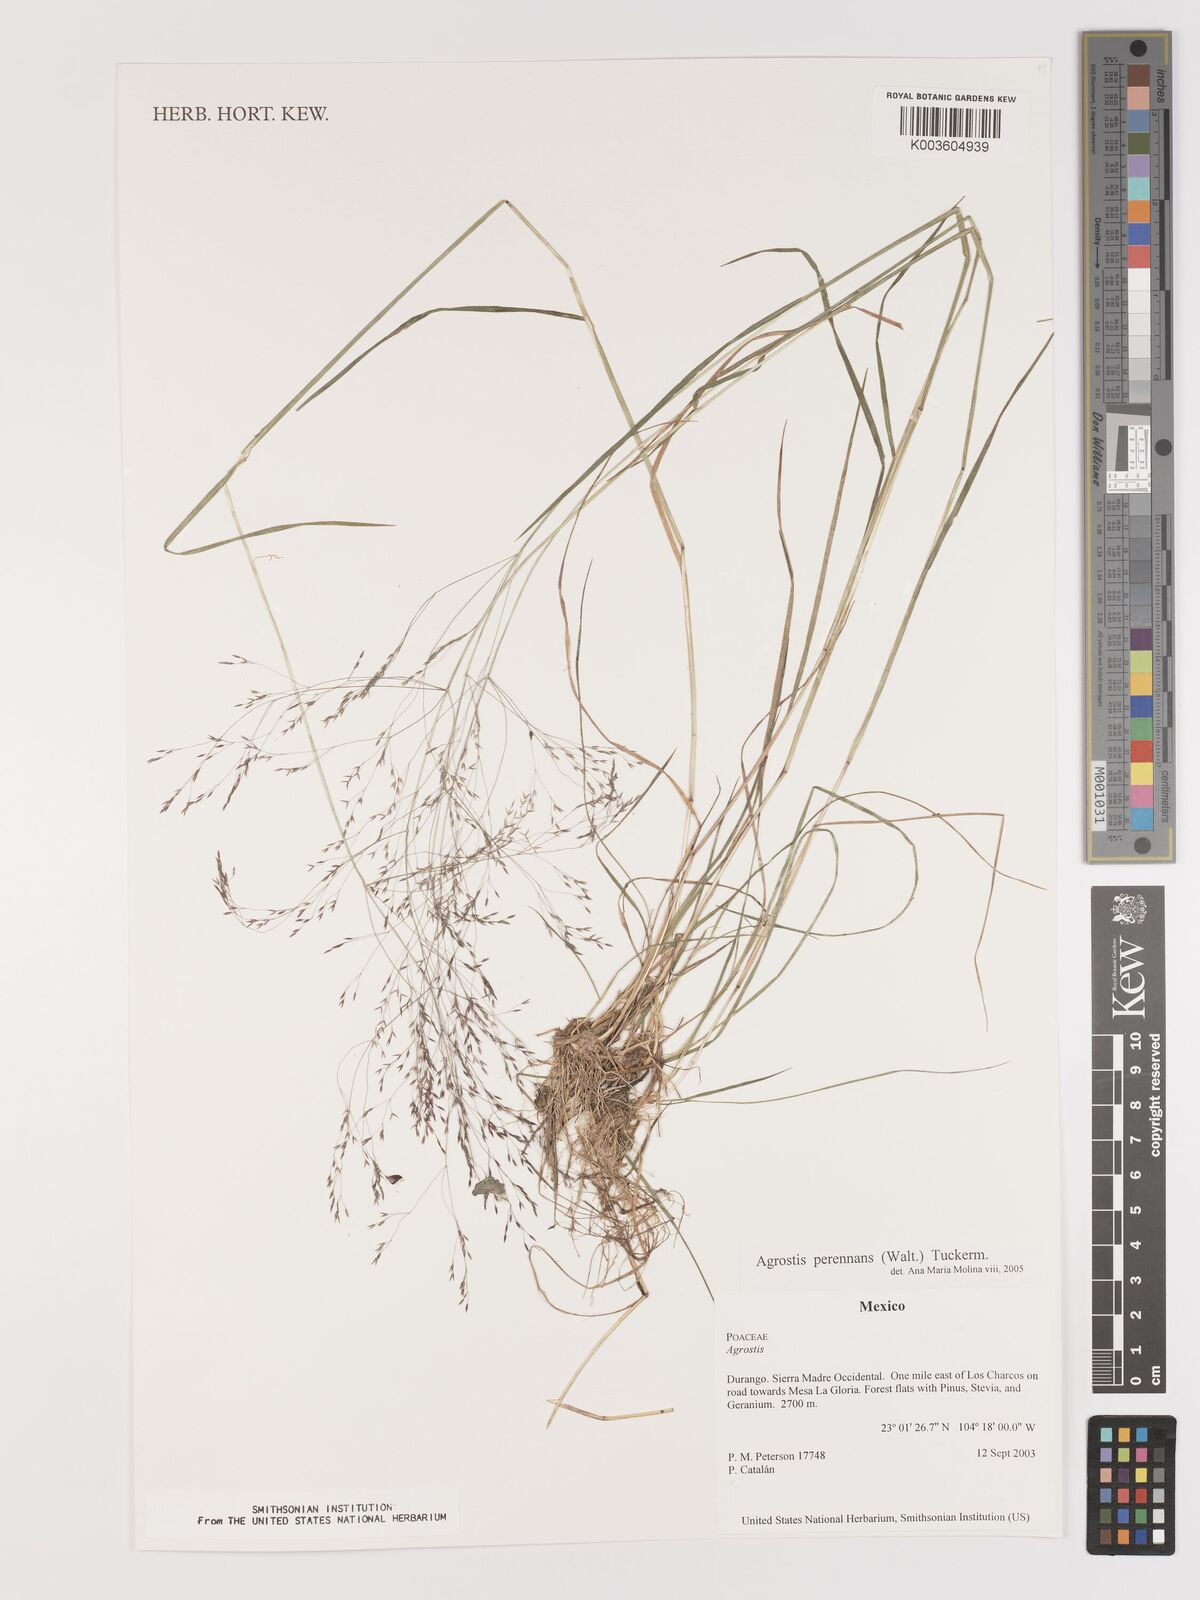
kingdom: Plantae
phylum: Tracheophyta
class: Liliopsida
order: Poales
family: Poaceae
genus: Agrostis
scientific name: Agrostis perennans
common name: Autumn bent
